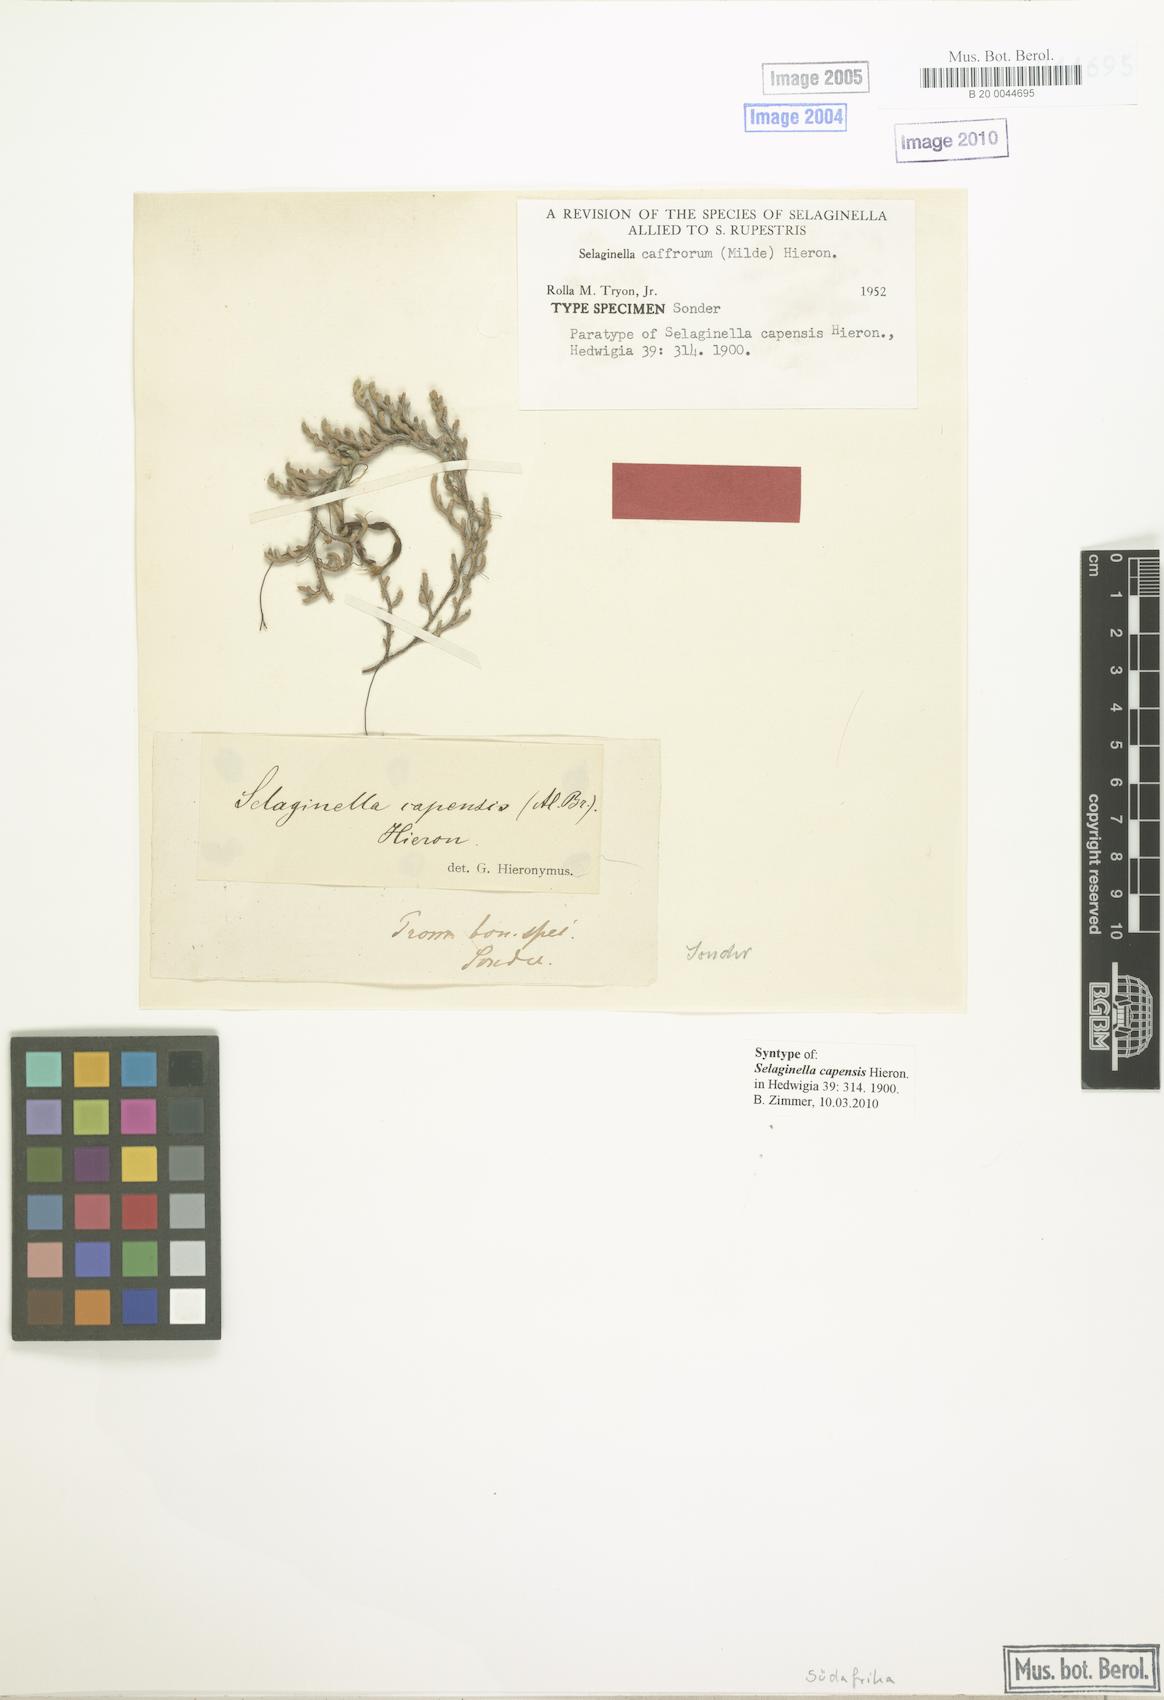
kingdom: Plantae
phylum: Tracheophyta
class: Lycopodiopsida
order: Selaginellales
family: Selaginellaceae
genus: Selaginella
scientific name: Selaginella caffrorum
